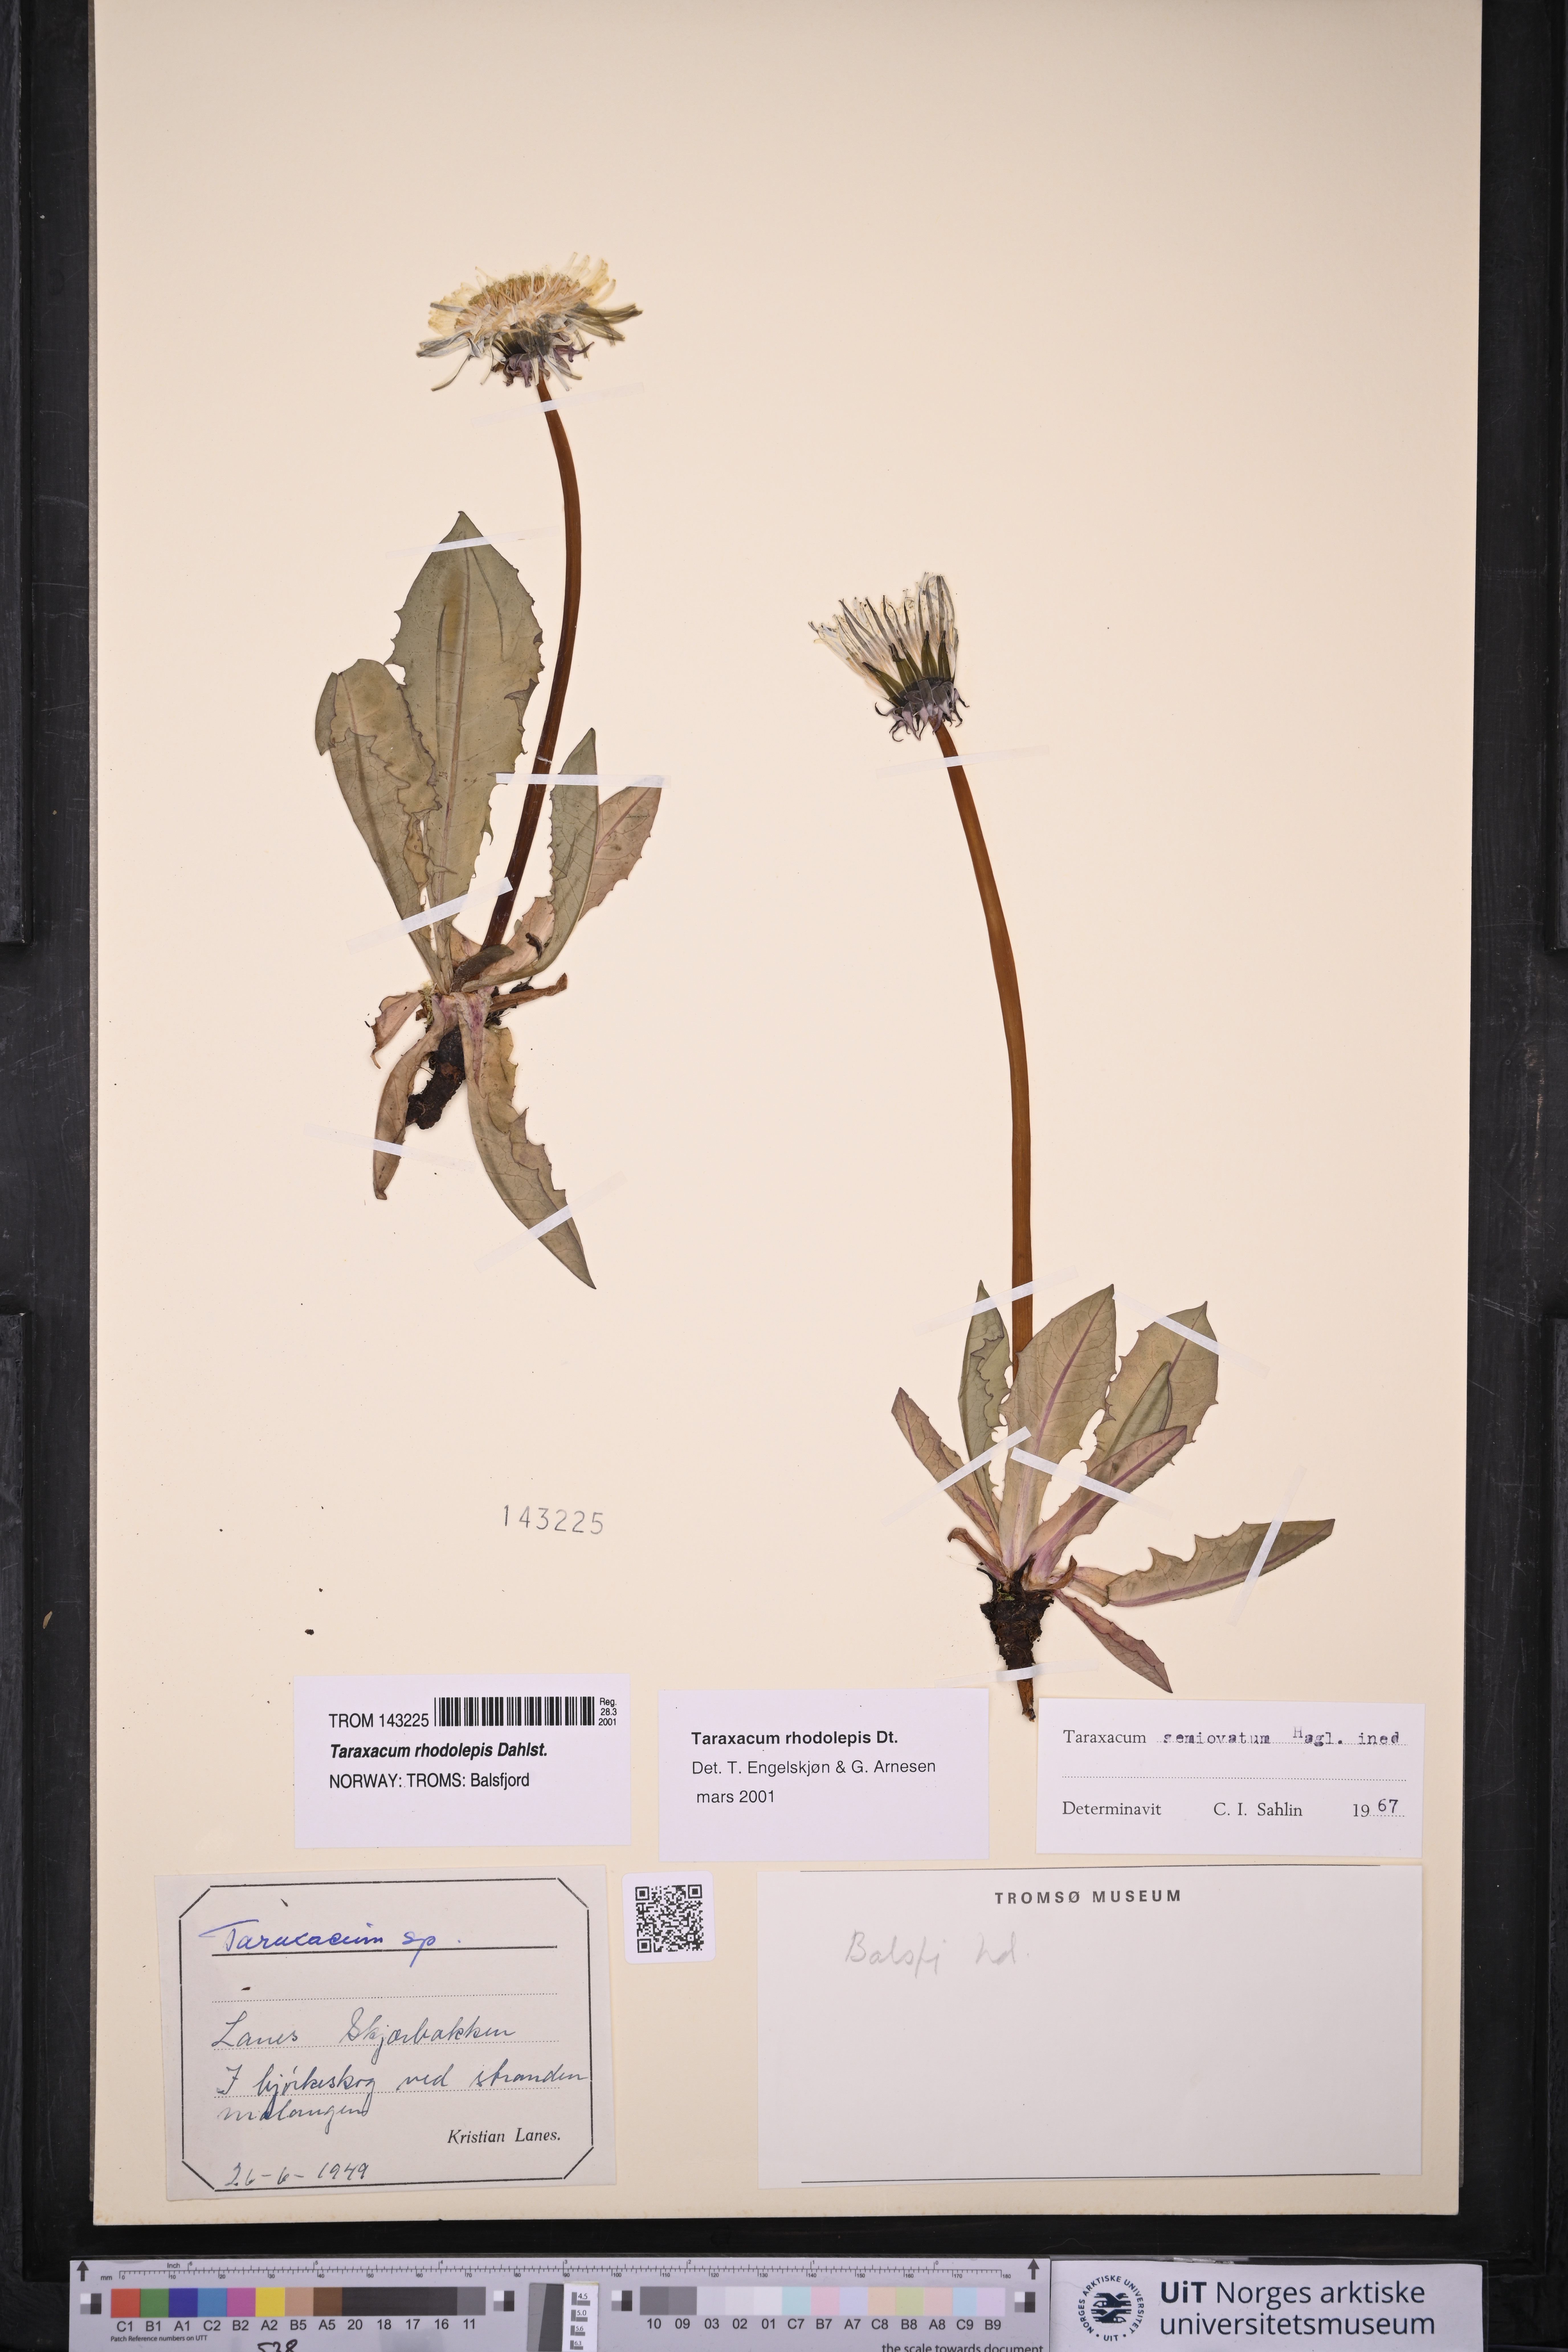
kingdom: Plantae
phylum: Tracheophyta
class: Magnoliopsida
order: Asterales
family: Asteraceae
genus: Taraxacum
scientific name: Taraxacum rhodolepis
